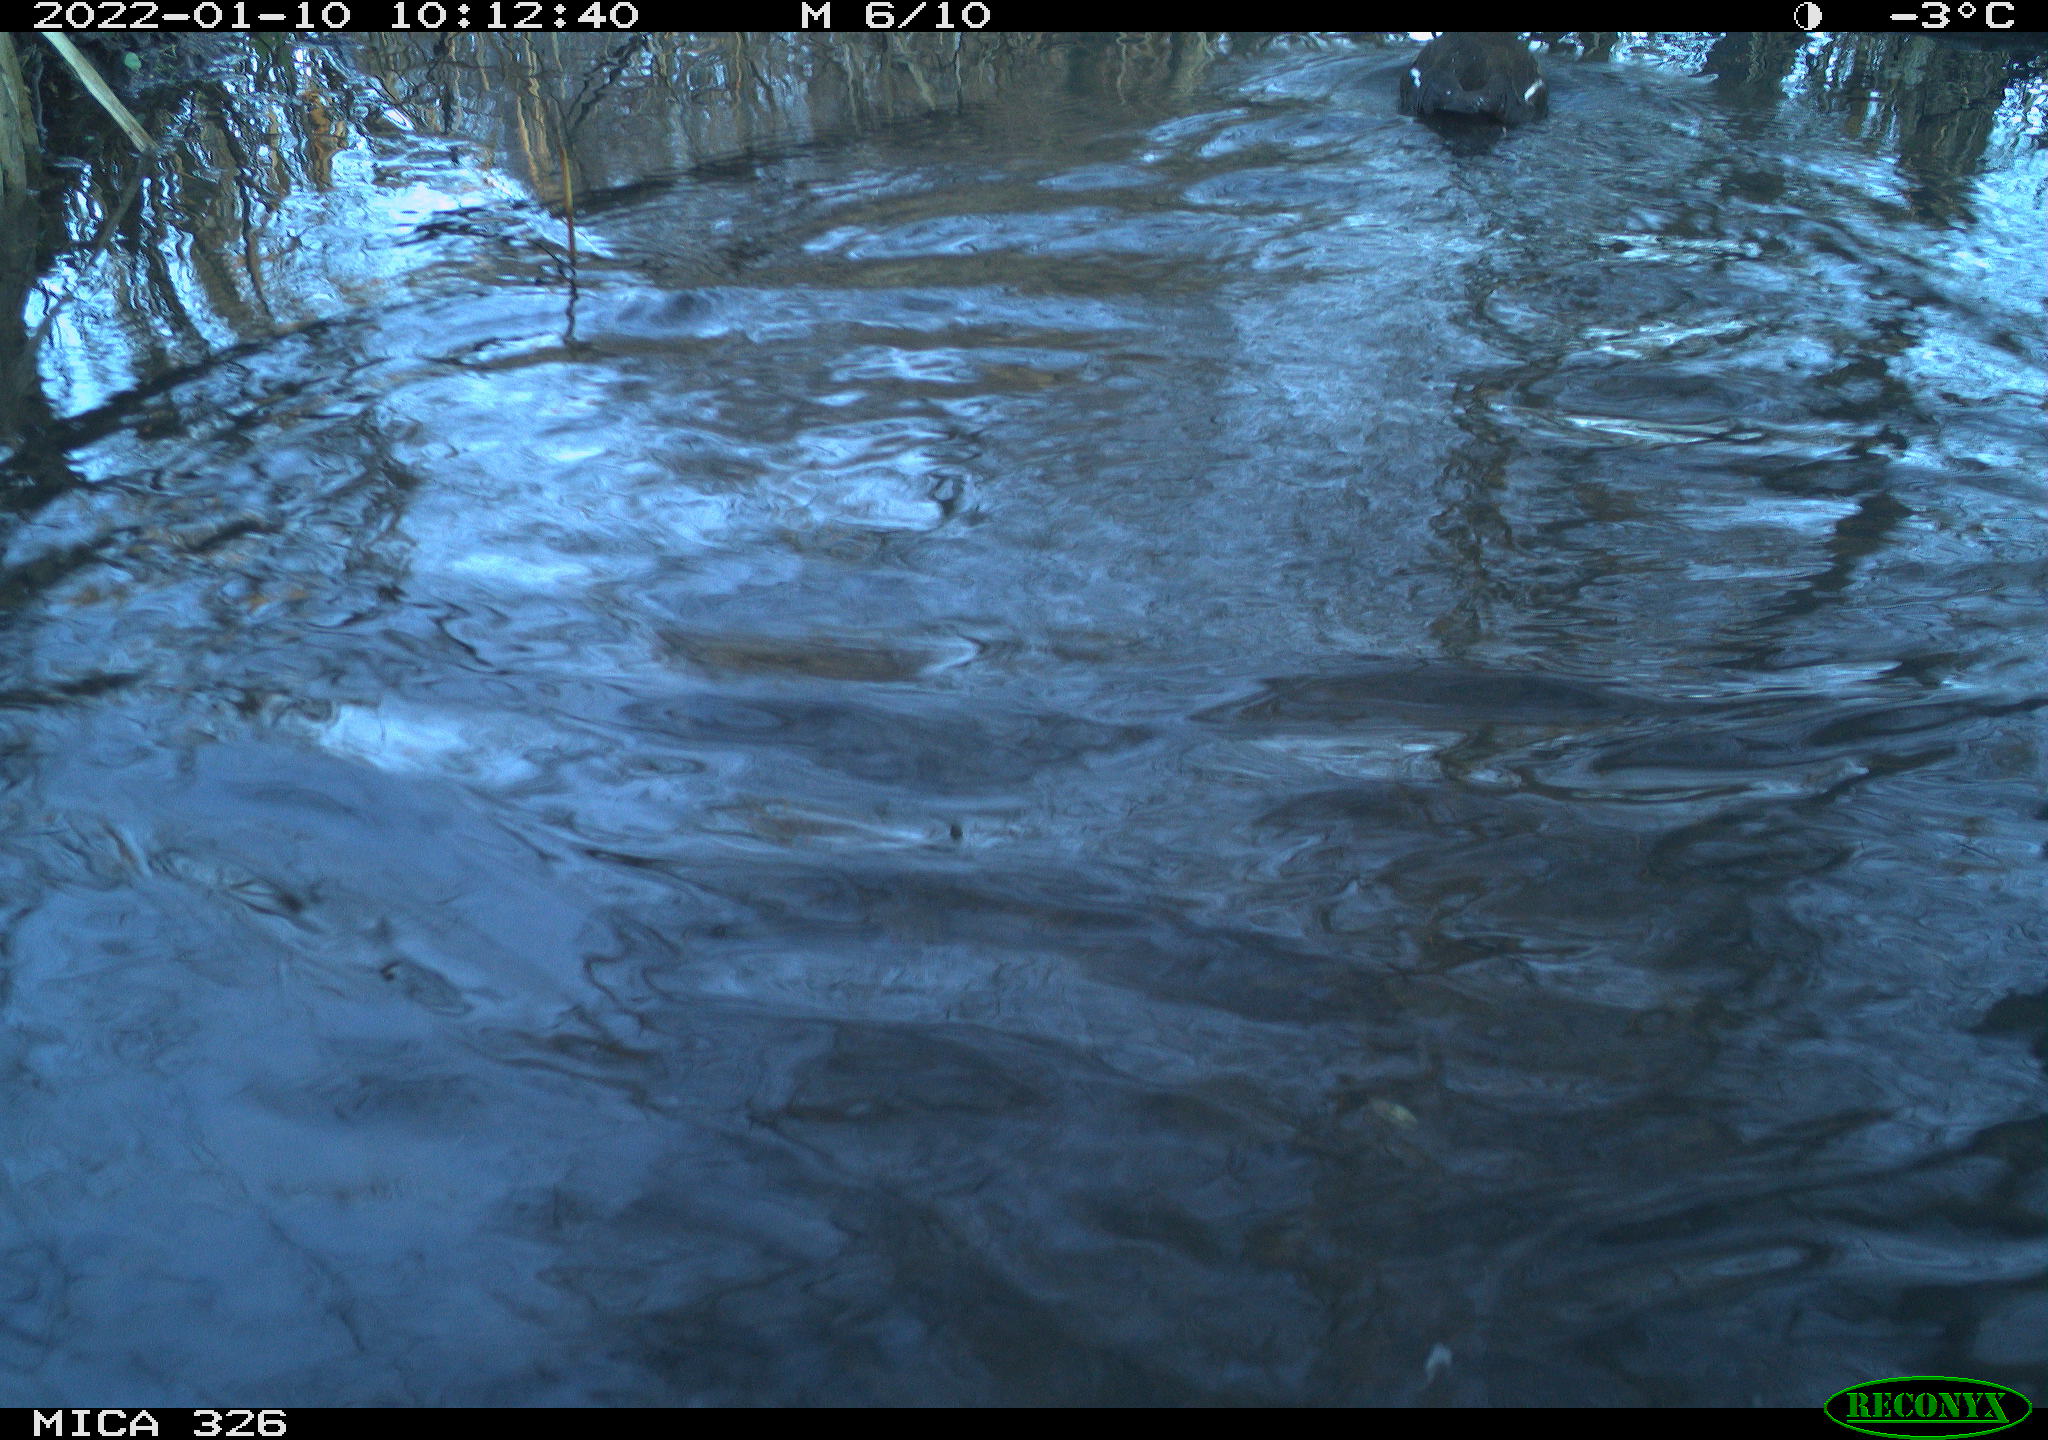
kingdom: Animalia
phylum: Chordata
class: Aves
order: Gruiformes
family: Rallidae
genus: Gallinula
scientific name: Gallinula chloropus
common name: Common moorhen
